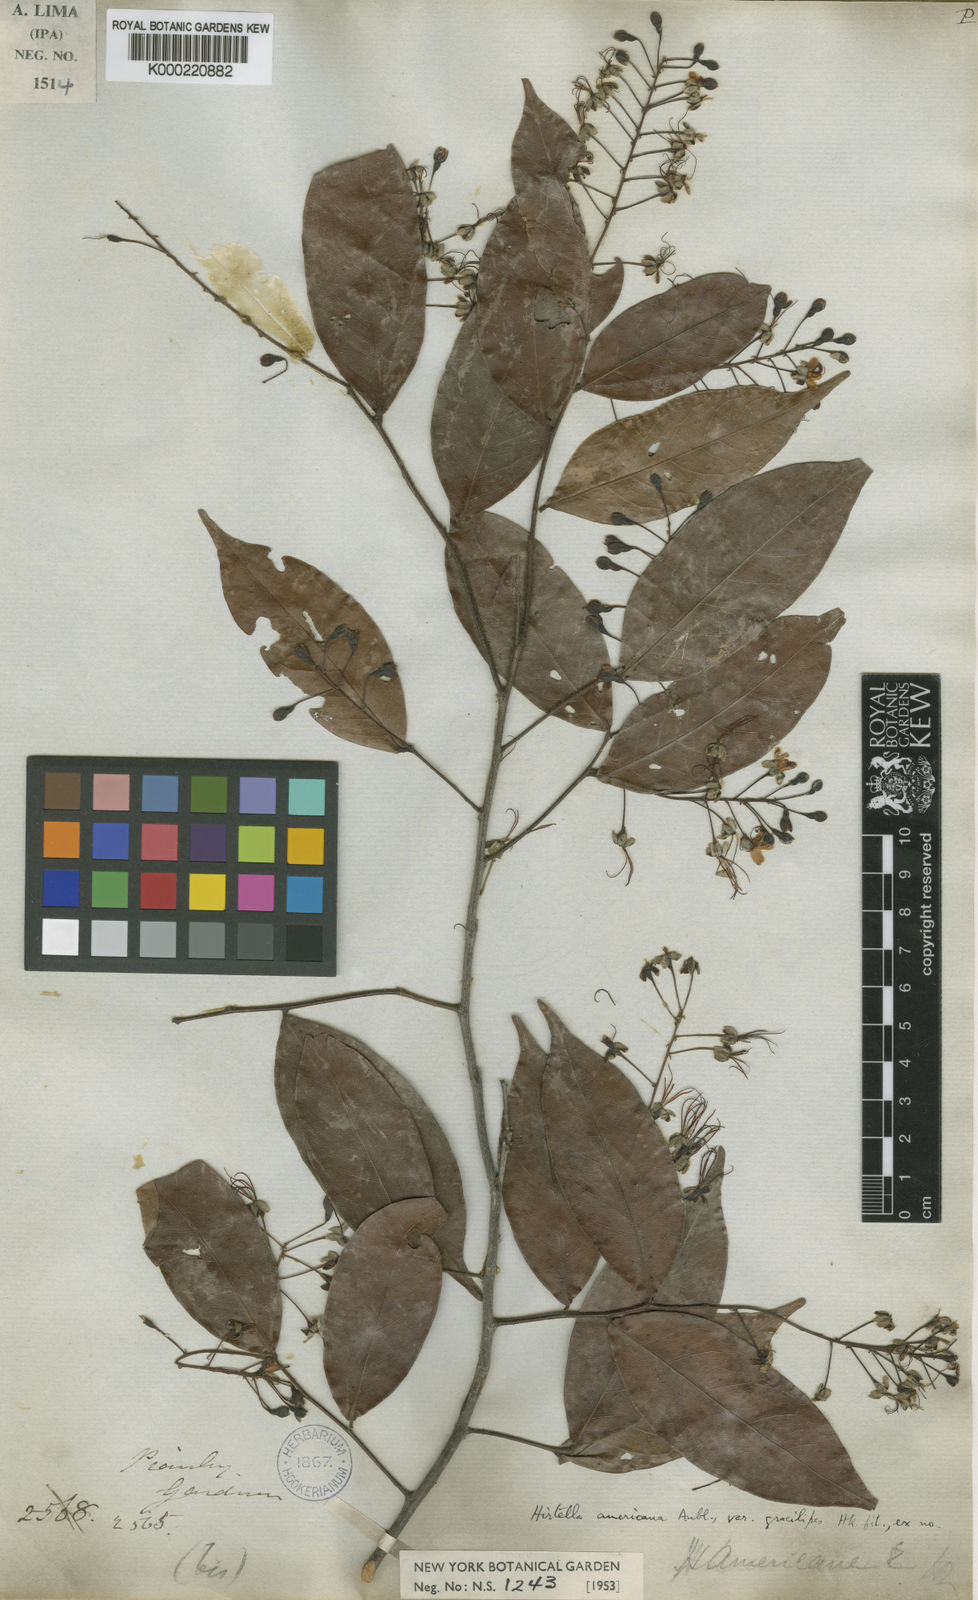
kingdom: Plantae
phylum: Tracheophyta
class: Magnoliopsida
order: Malpighiales
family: Chrysobalanaceae
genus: Hirtella
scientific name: Hirtella racemosa
